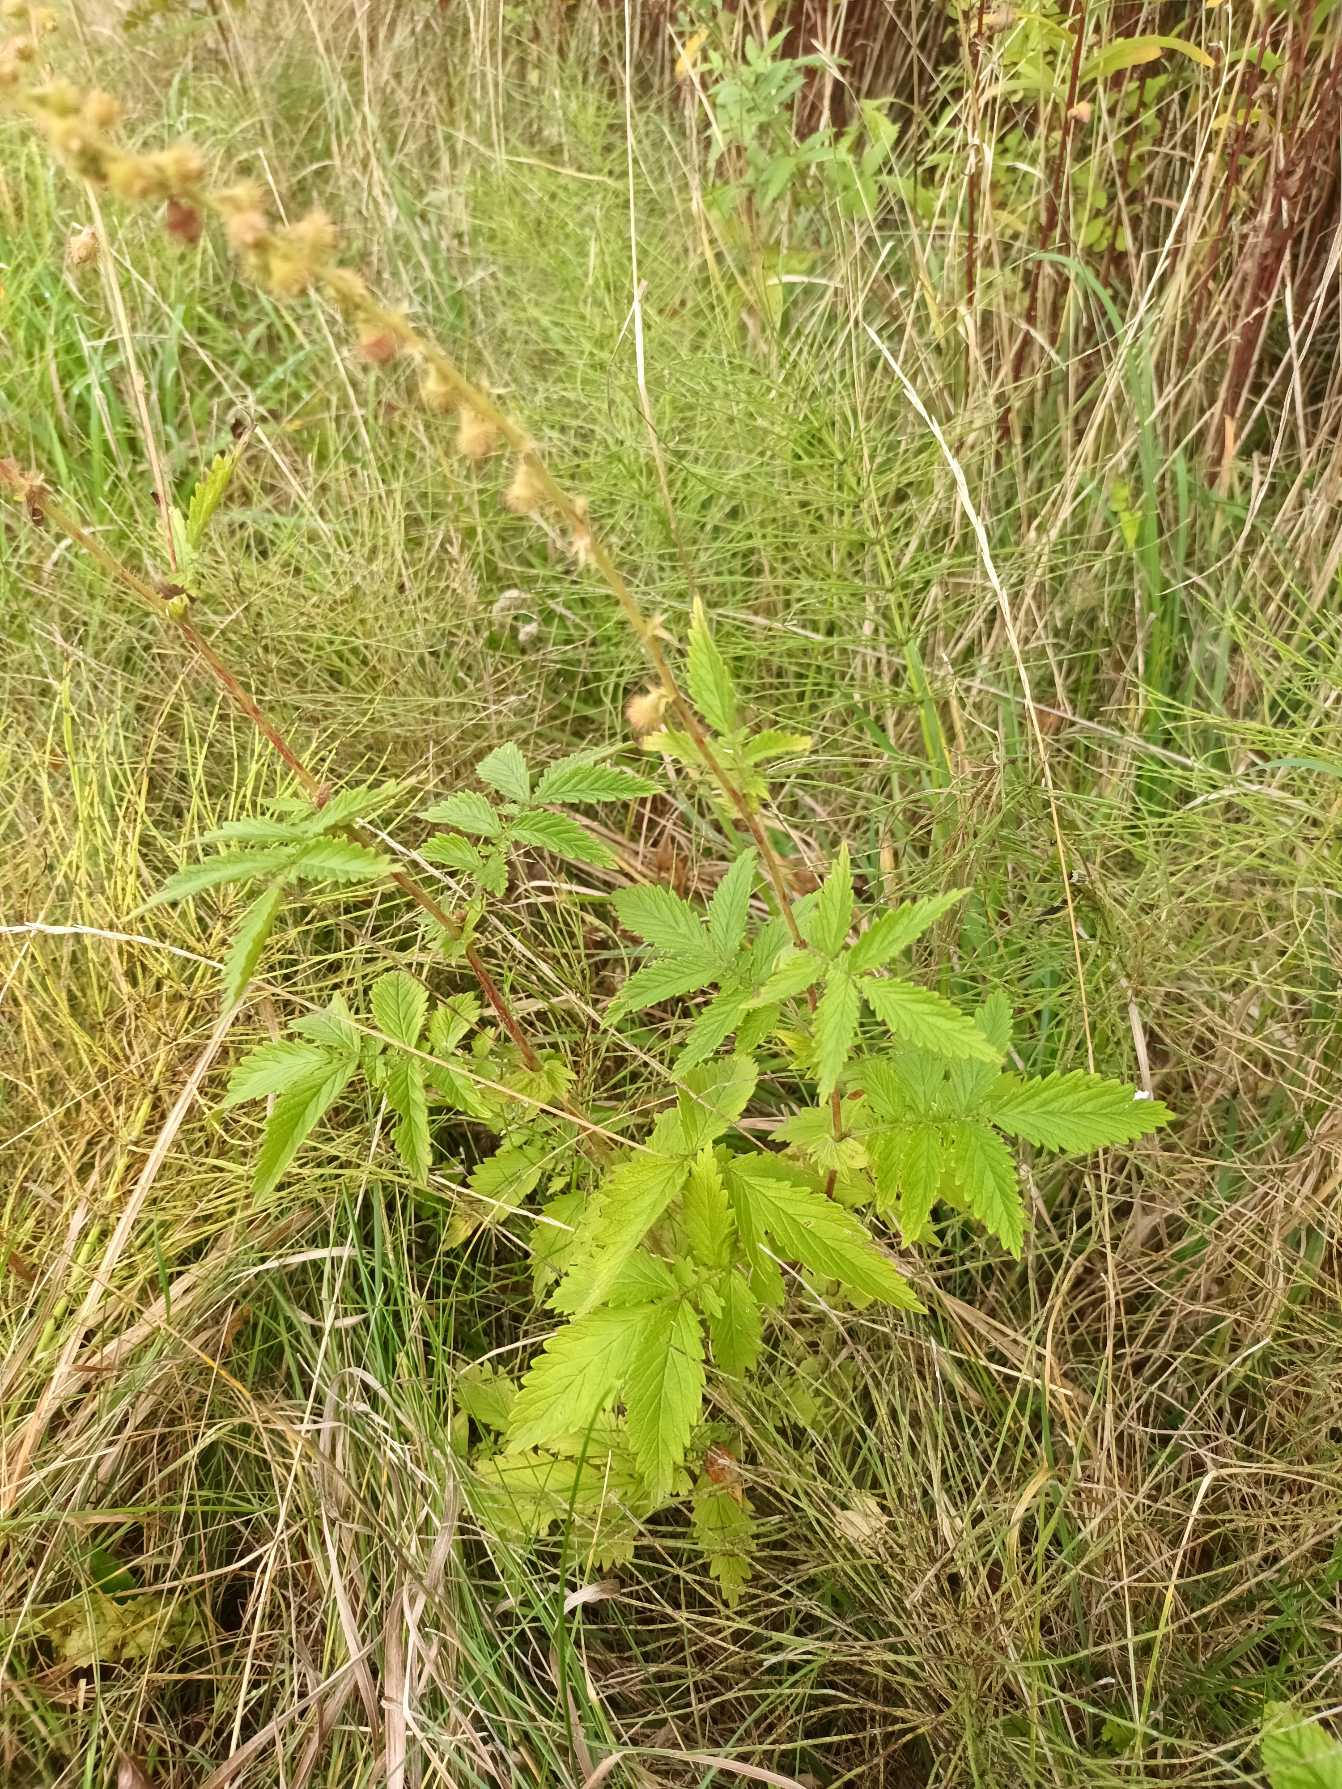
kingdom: Plantae
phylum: Tracheophyta
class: Magnoliopsida
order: Rosales
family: Rosaceae
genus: Agrimonia
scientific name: Agrimonia procera
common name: Vellugtende agermåne
